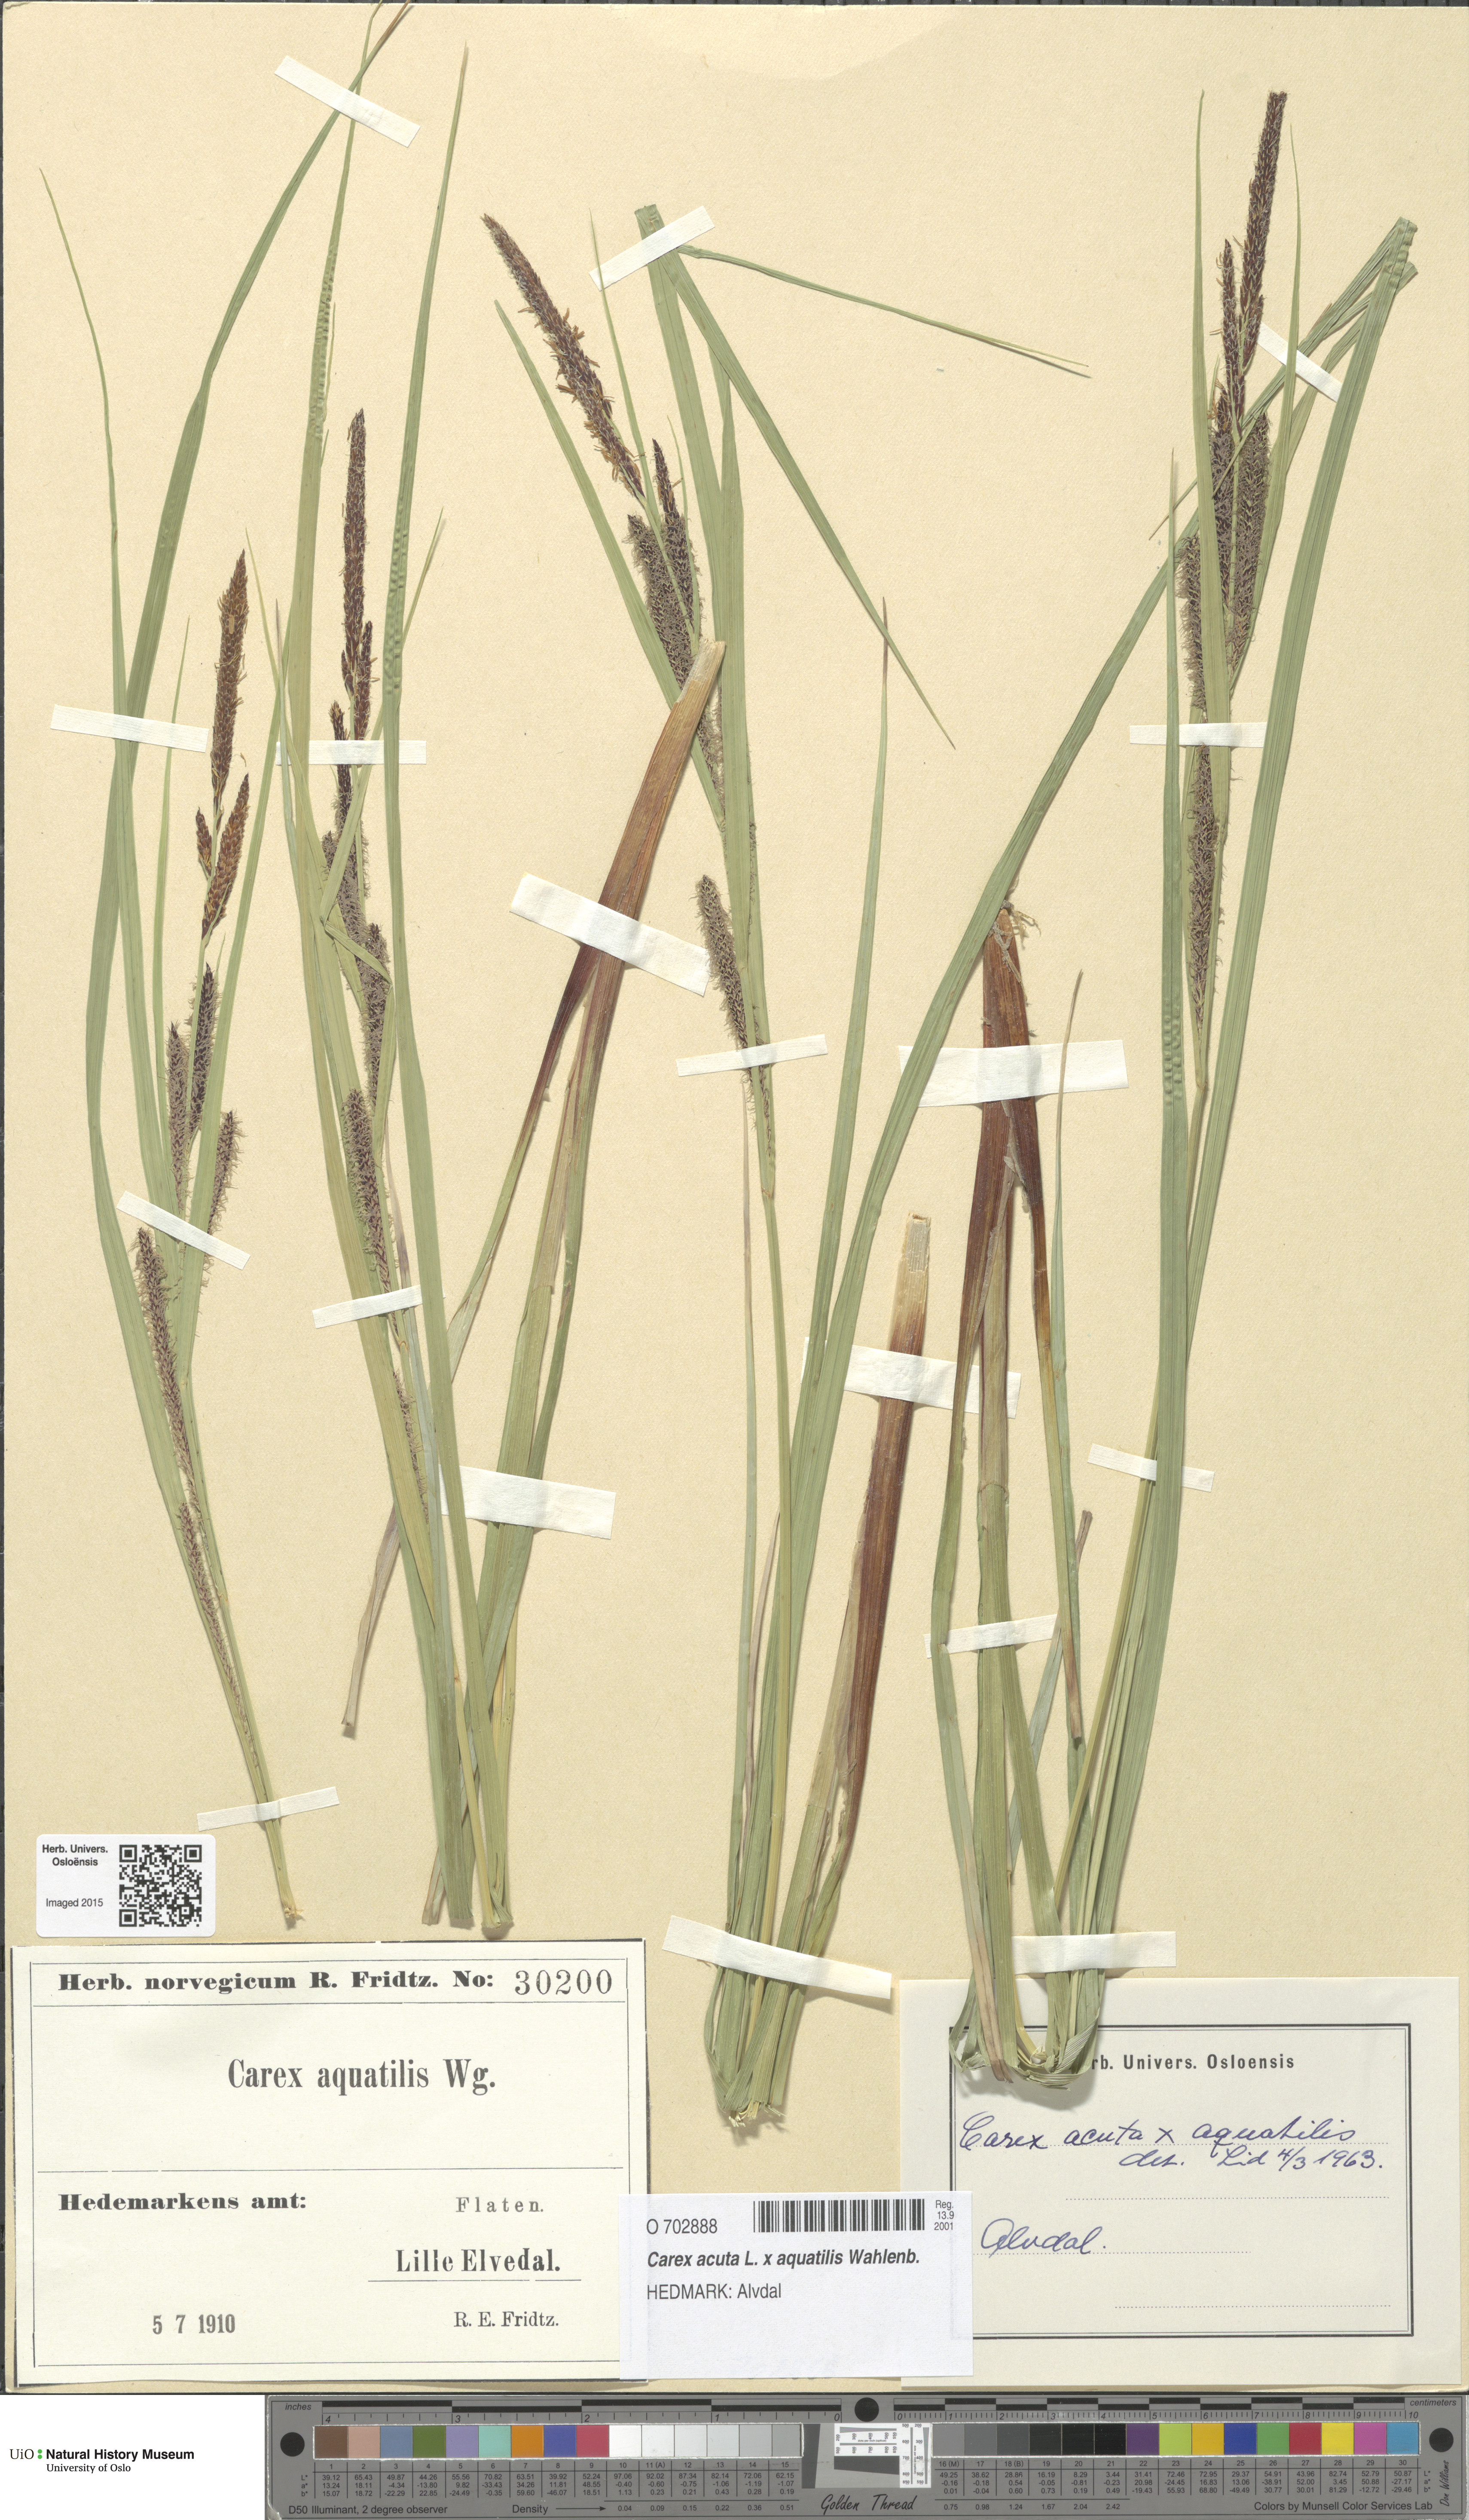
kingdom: Plantae
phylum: Tracheophyta
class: Liliopsida
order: Poales
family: Cyperaceae
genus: Carex
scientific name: Carex
